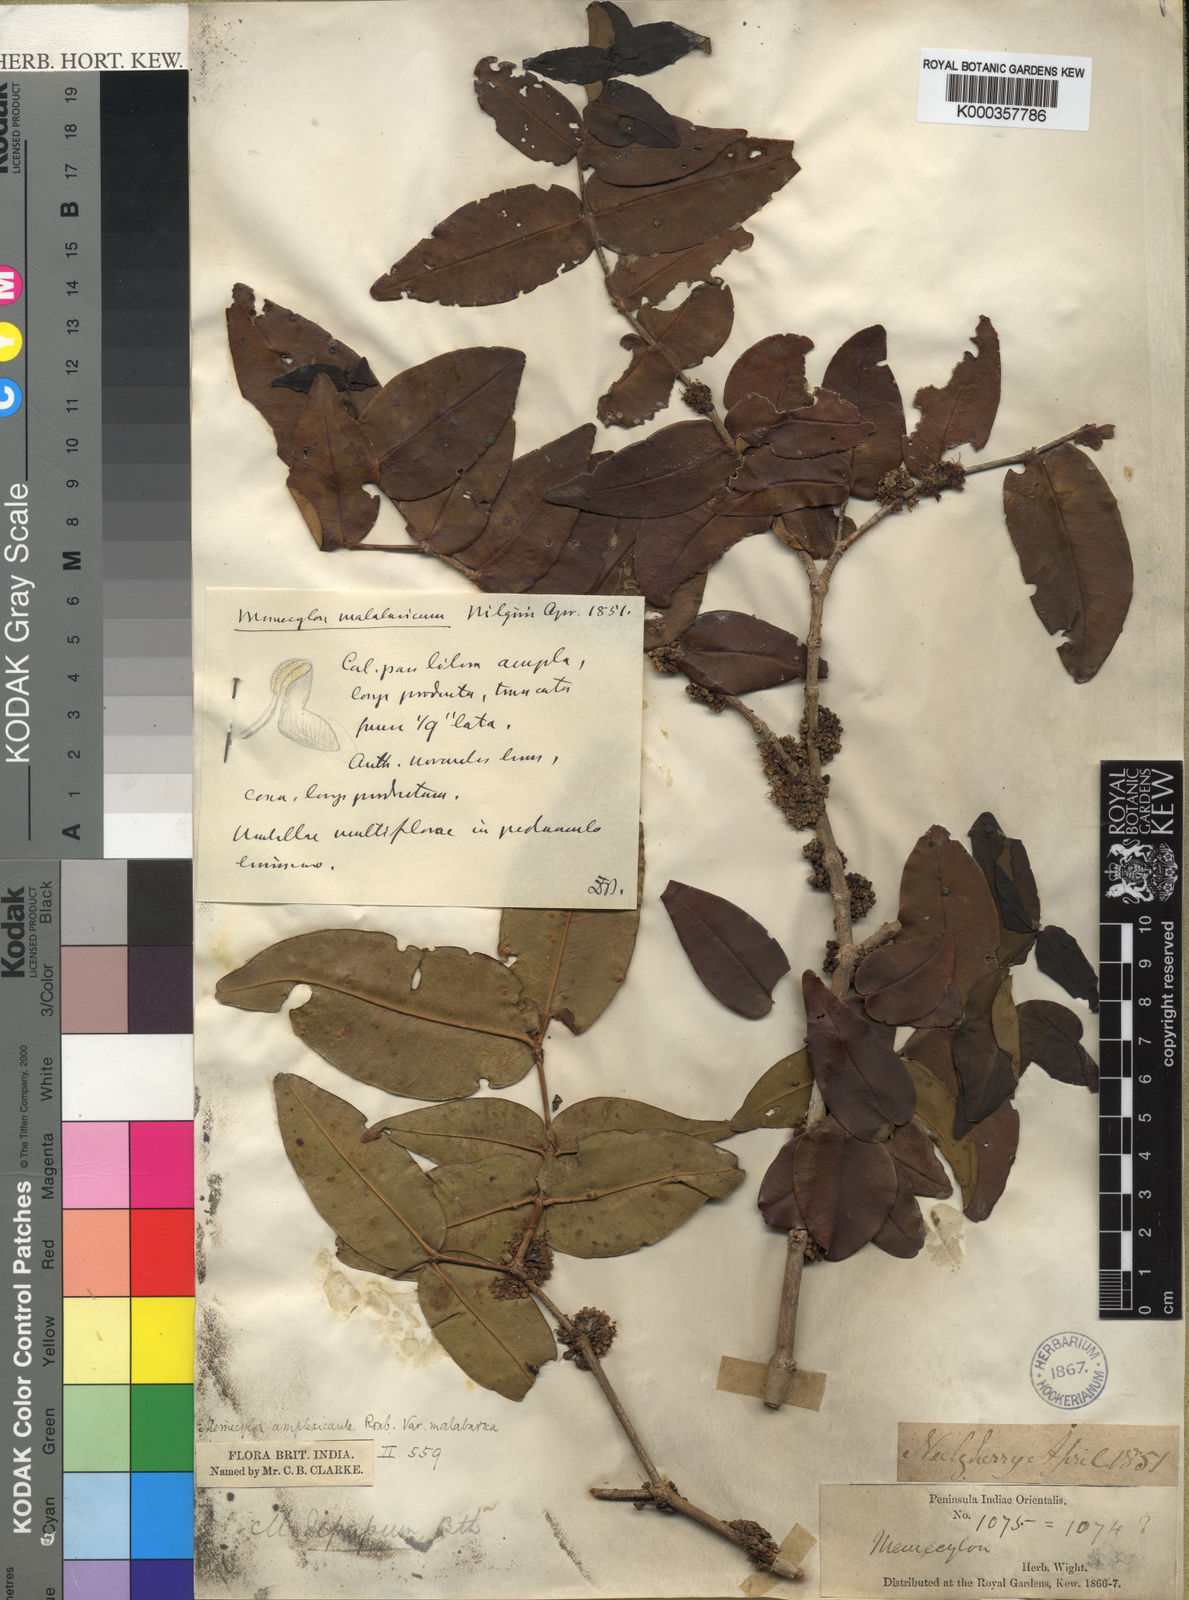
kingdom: Plantae
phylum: Tracheophyta
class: Magnoliopsida
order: Myrtales
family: Melastomataceae
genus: Memecylon
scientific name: Memecylon sessile
